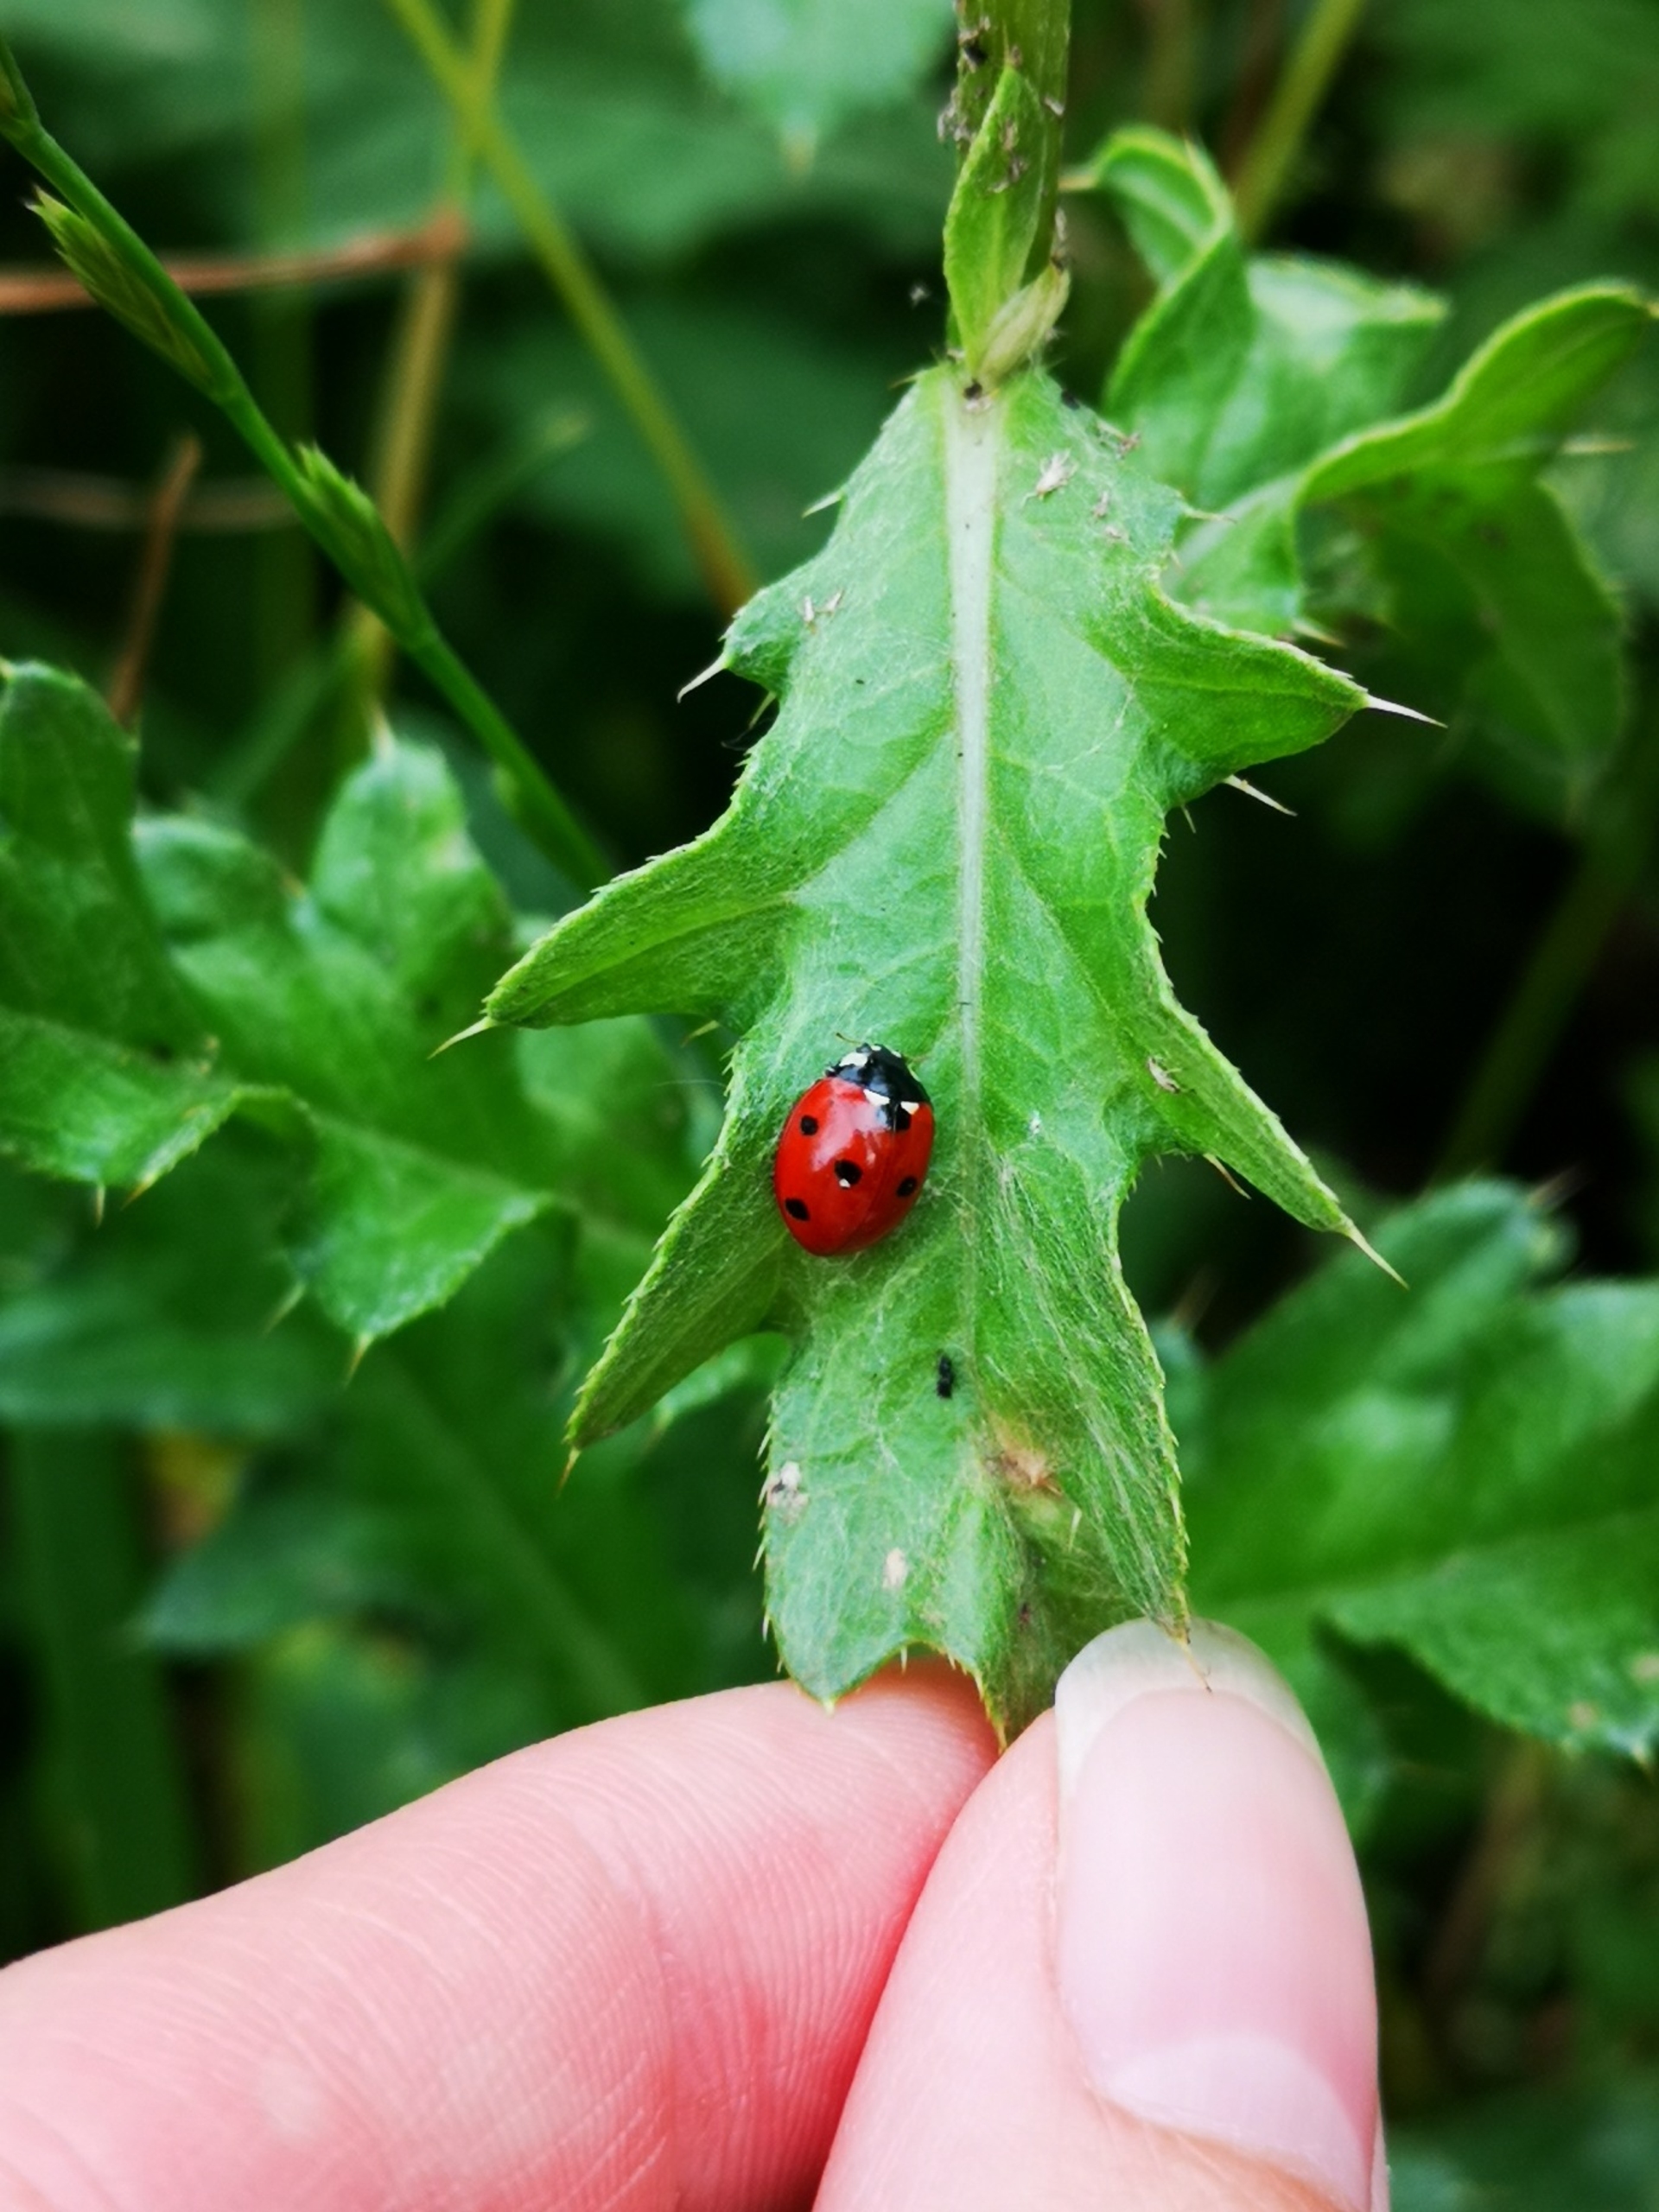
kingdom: Animalia
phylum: Arthropoda
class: Insecta
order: Coleoptera
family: Coccinellidae
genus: Coccinella
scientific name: Coccinella septempunctata
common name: Syvplettet mariehøne
